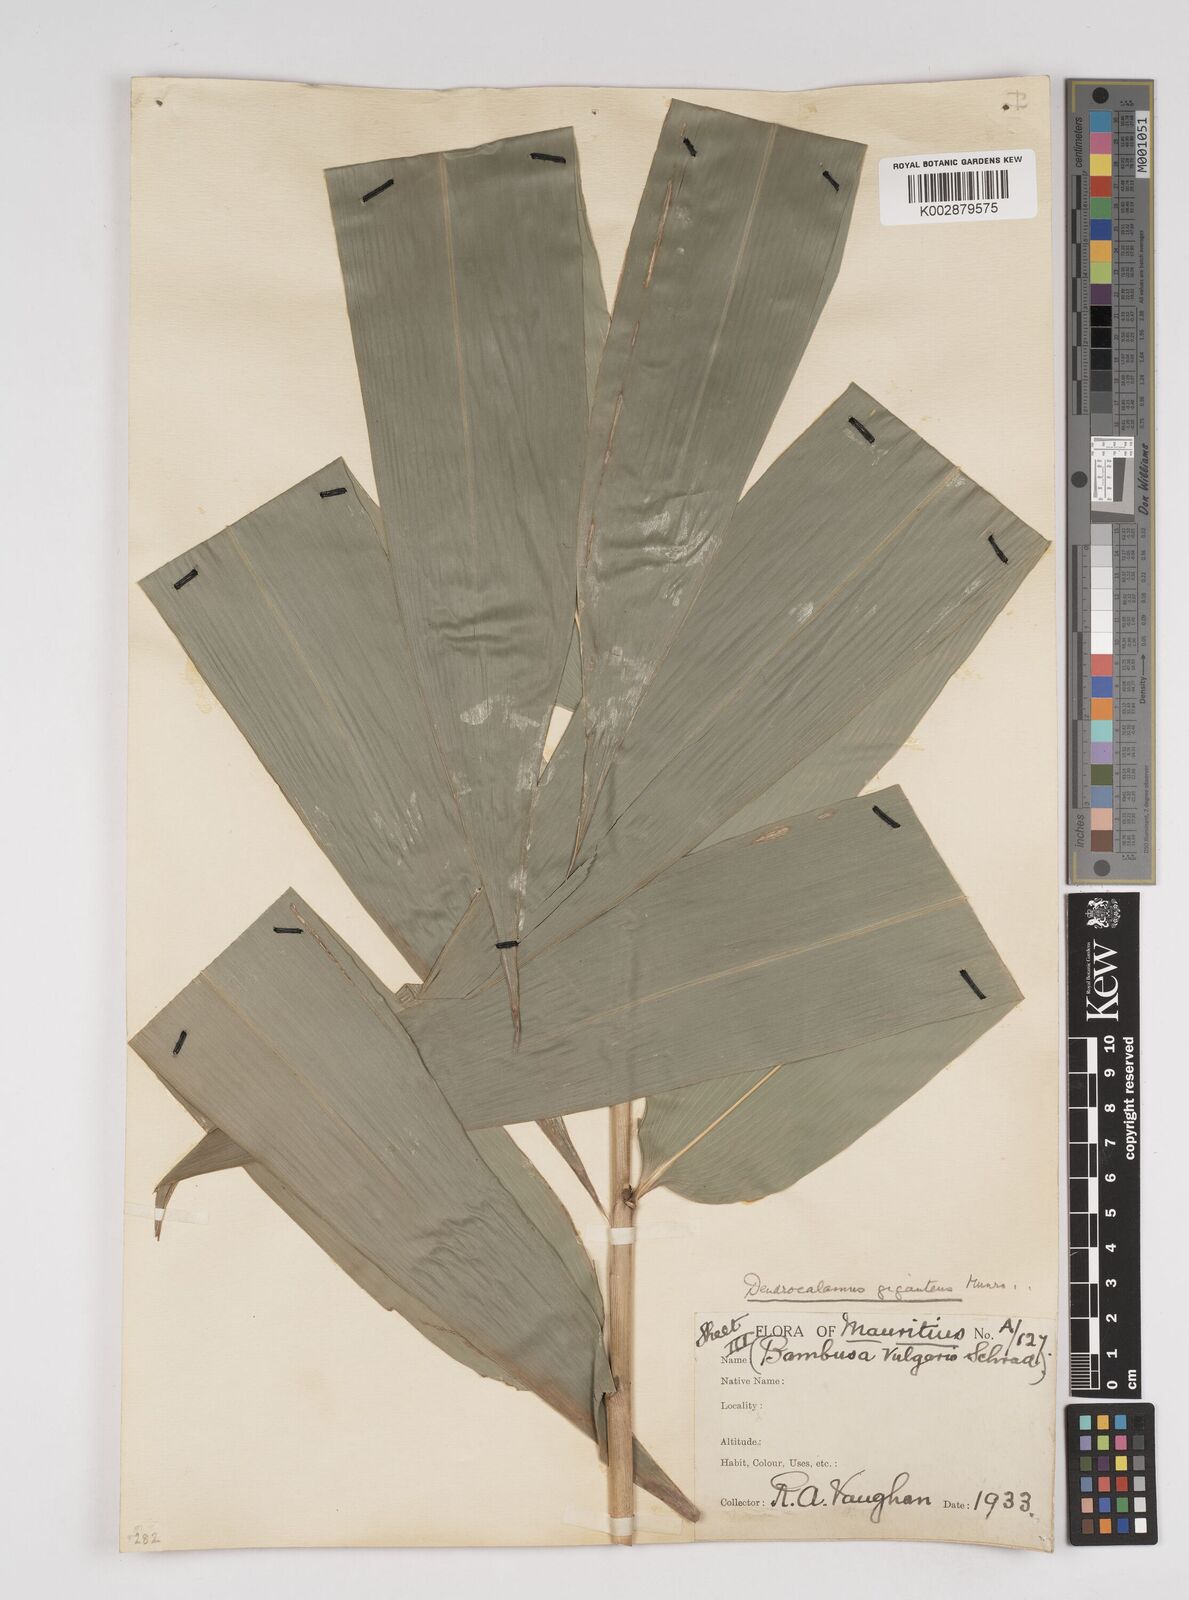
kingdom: Plantae
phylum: Tracheophyta
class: Liliopsida
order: Poales
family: Poaceae
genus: Dendrocalamus
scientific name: Dendrocalamus giganteus
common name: Giant bamboo
